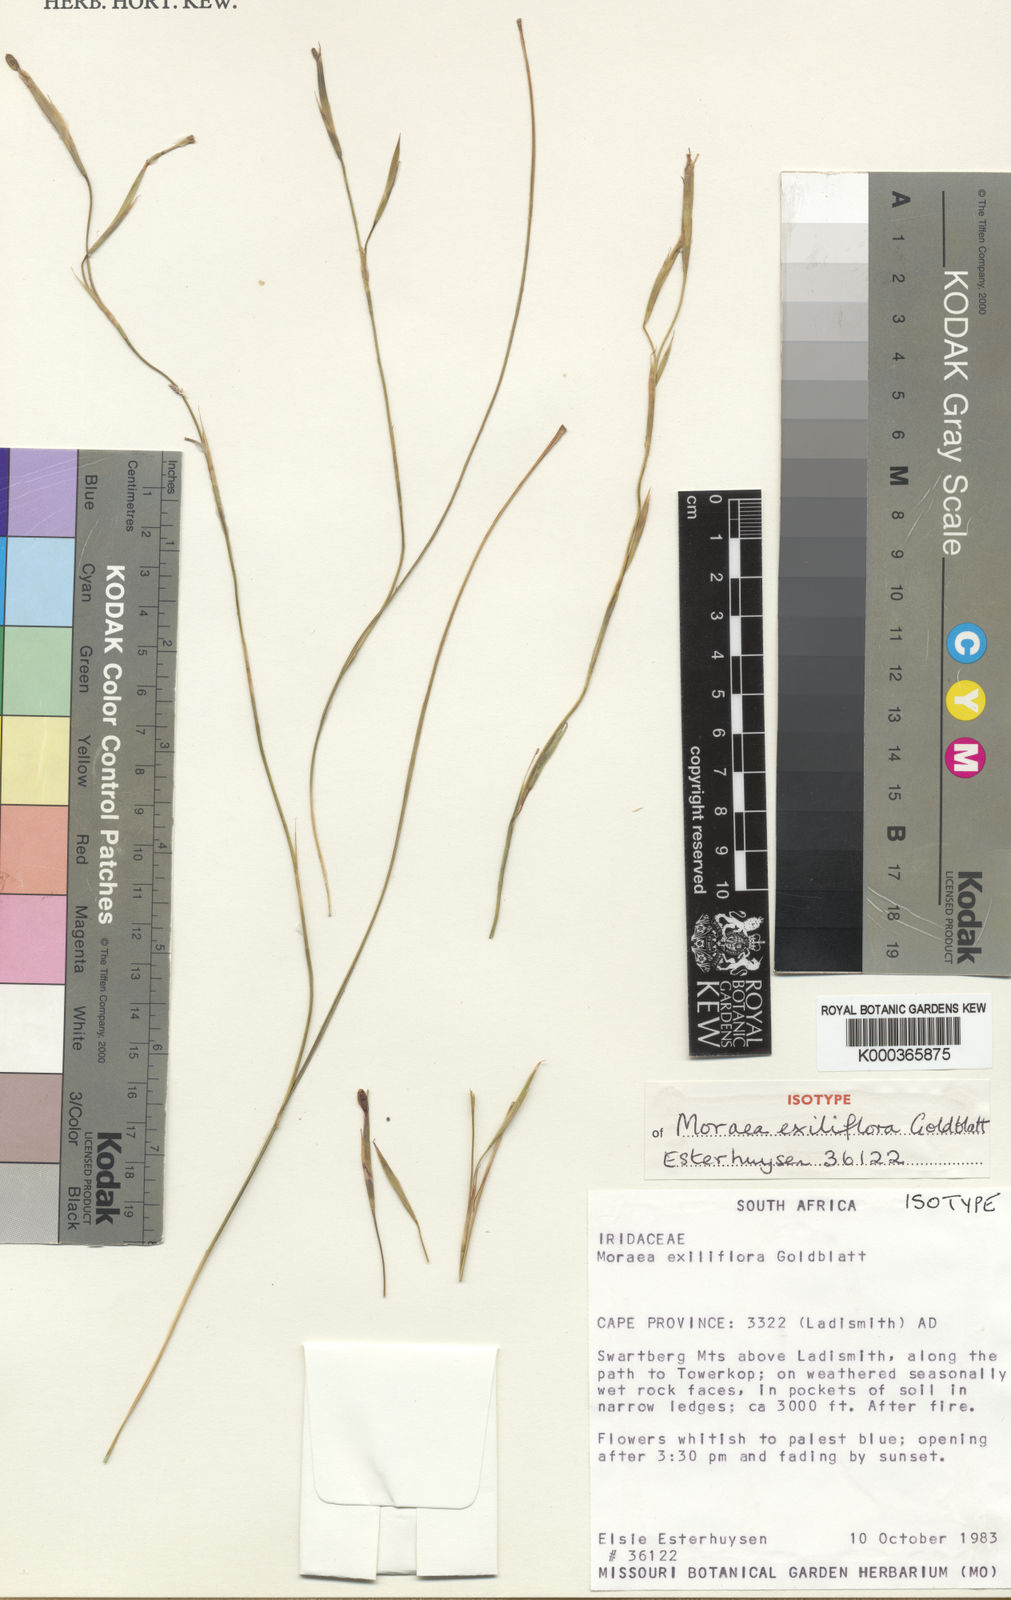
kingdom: Plantae
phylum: Tracheophyta
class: Liliopsida
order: Asparagales
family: Iridaceae
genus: Moraea
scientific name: Moraea exiliflora
